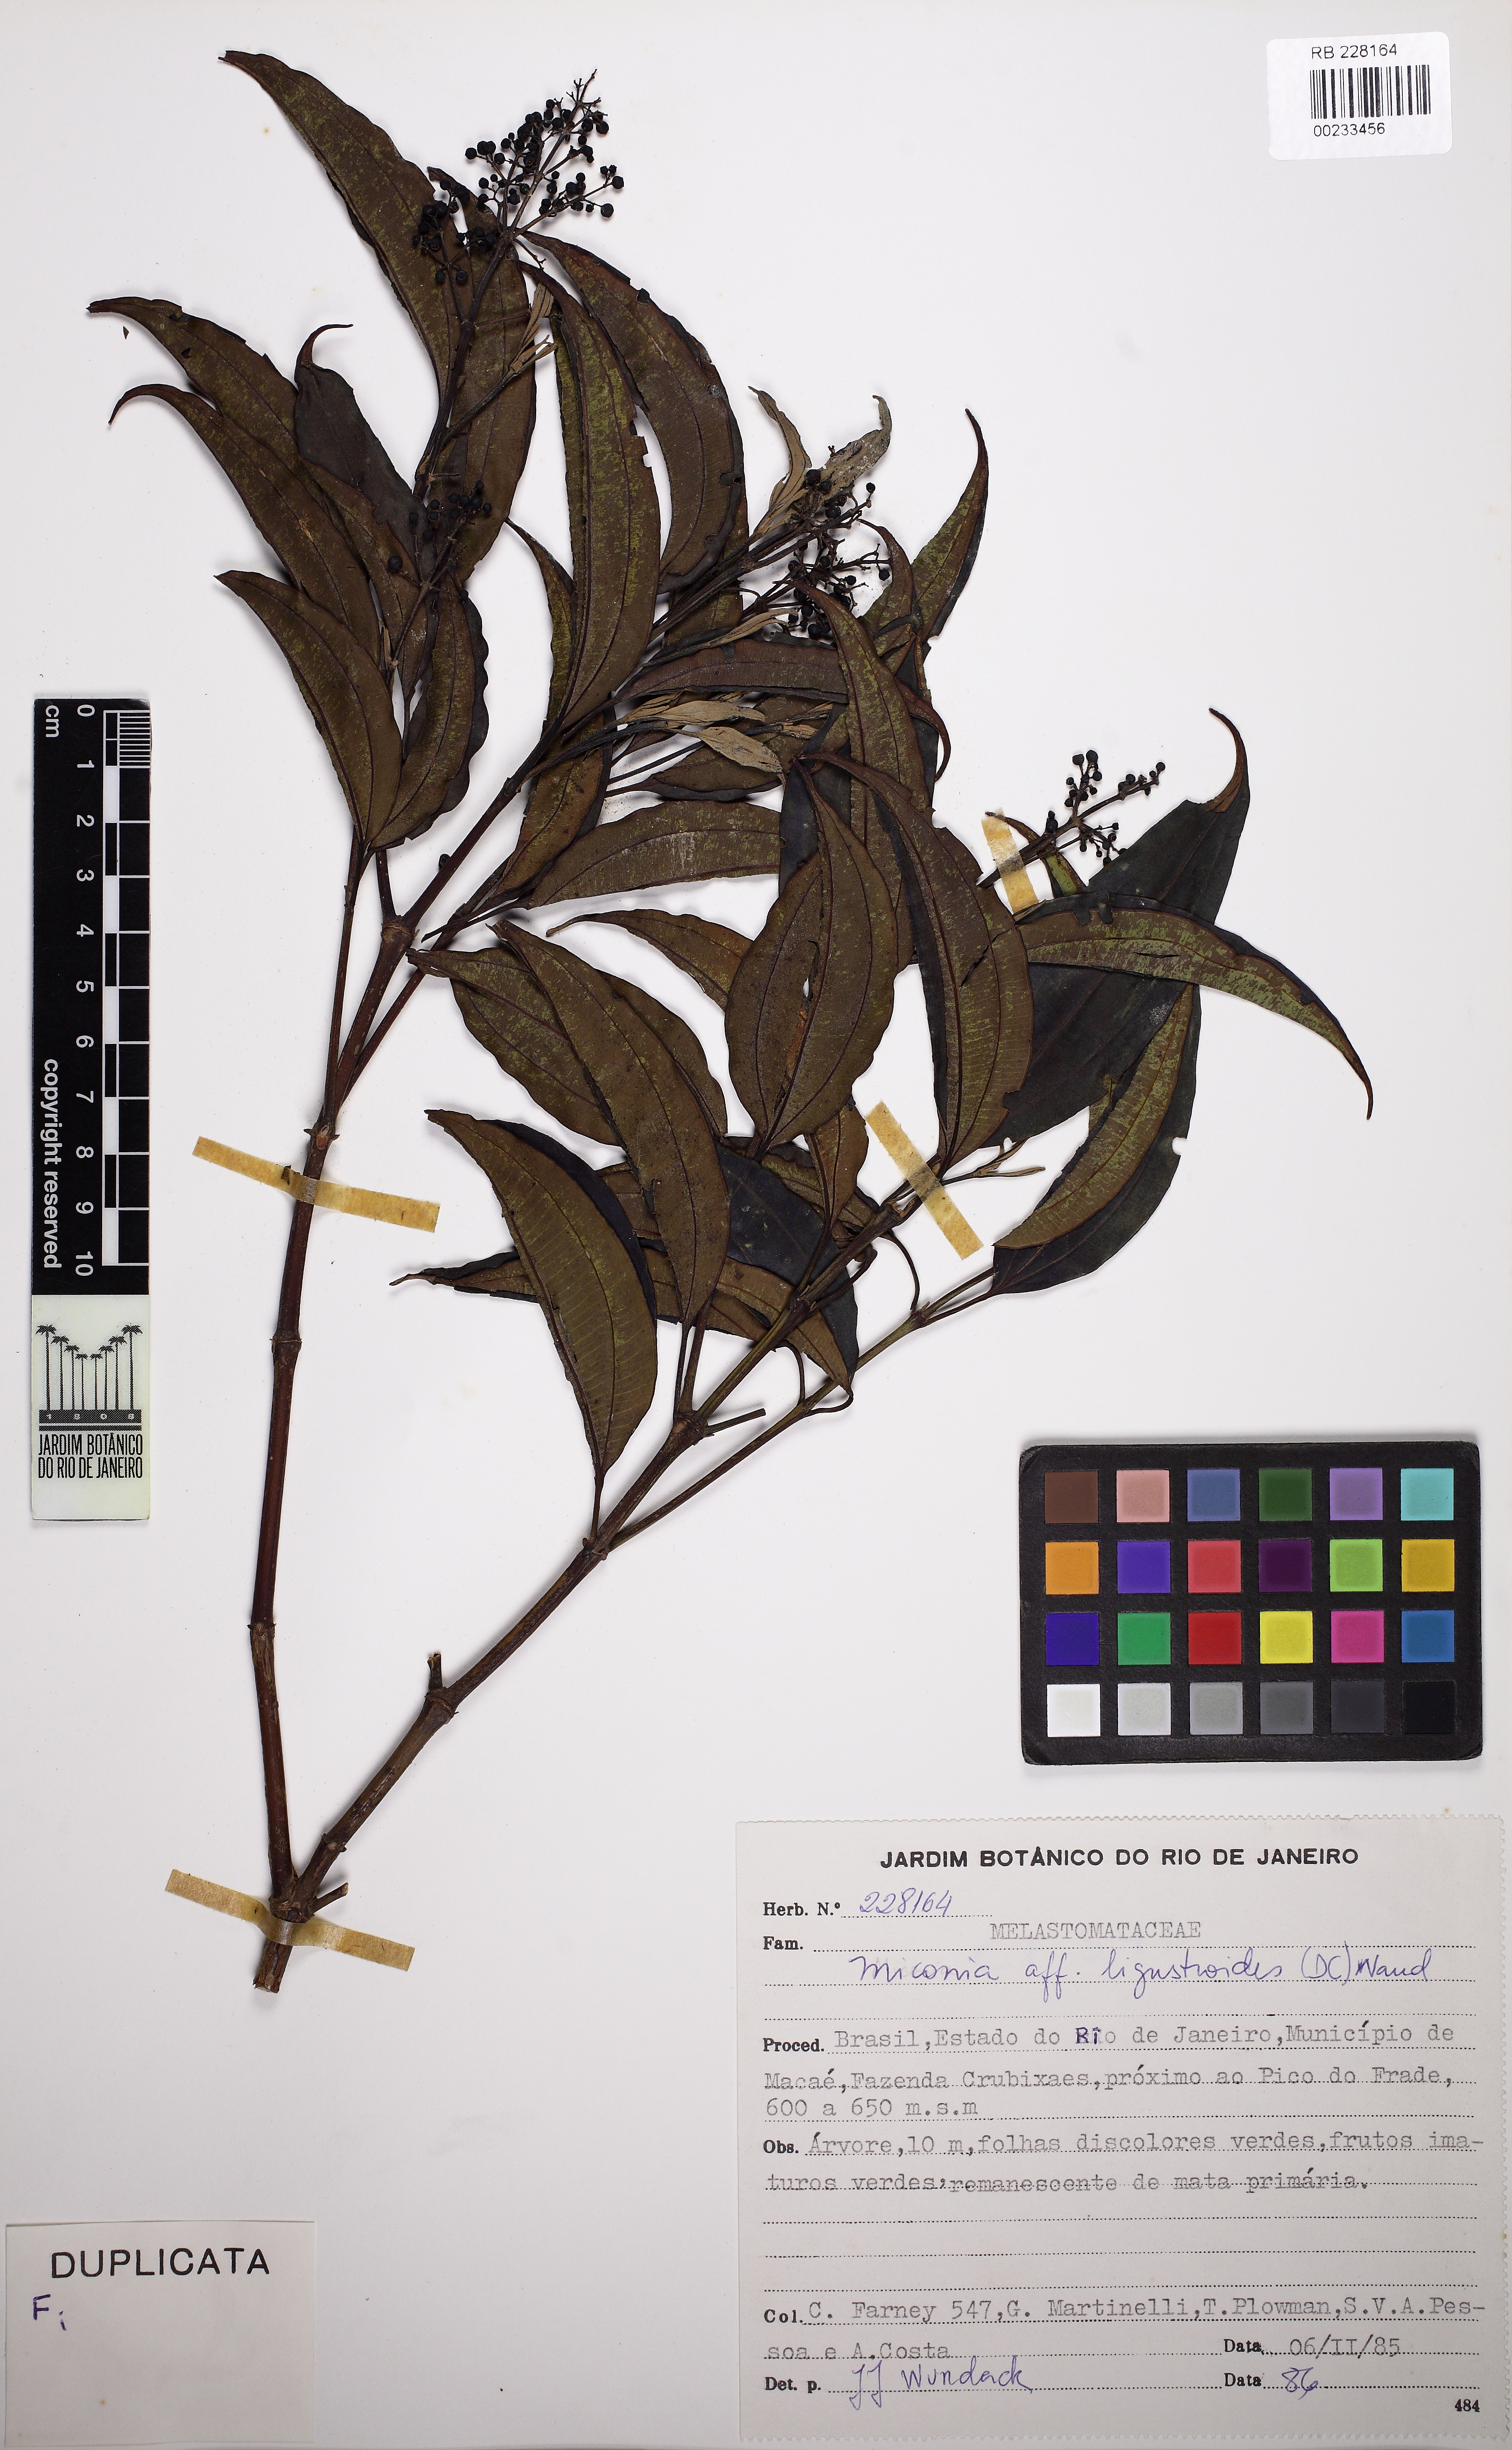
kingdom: Plantae
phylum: Tracheophyta
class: Magnoliopsida
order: Myrtales
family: Melastomataceae
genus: Miconia
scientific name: Miconia ligustroides
